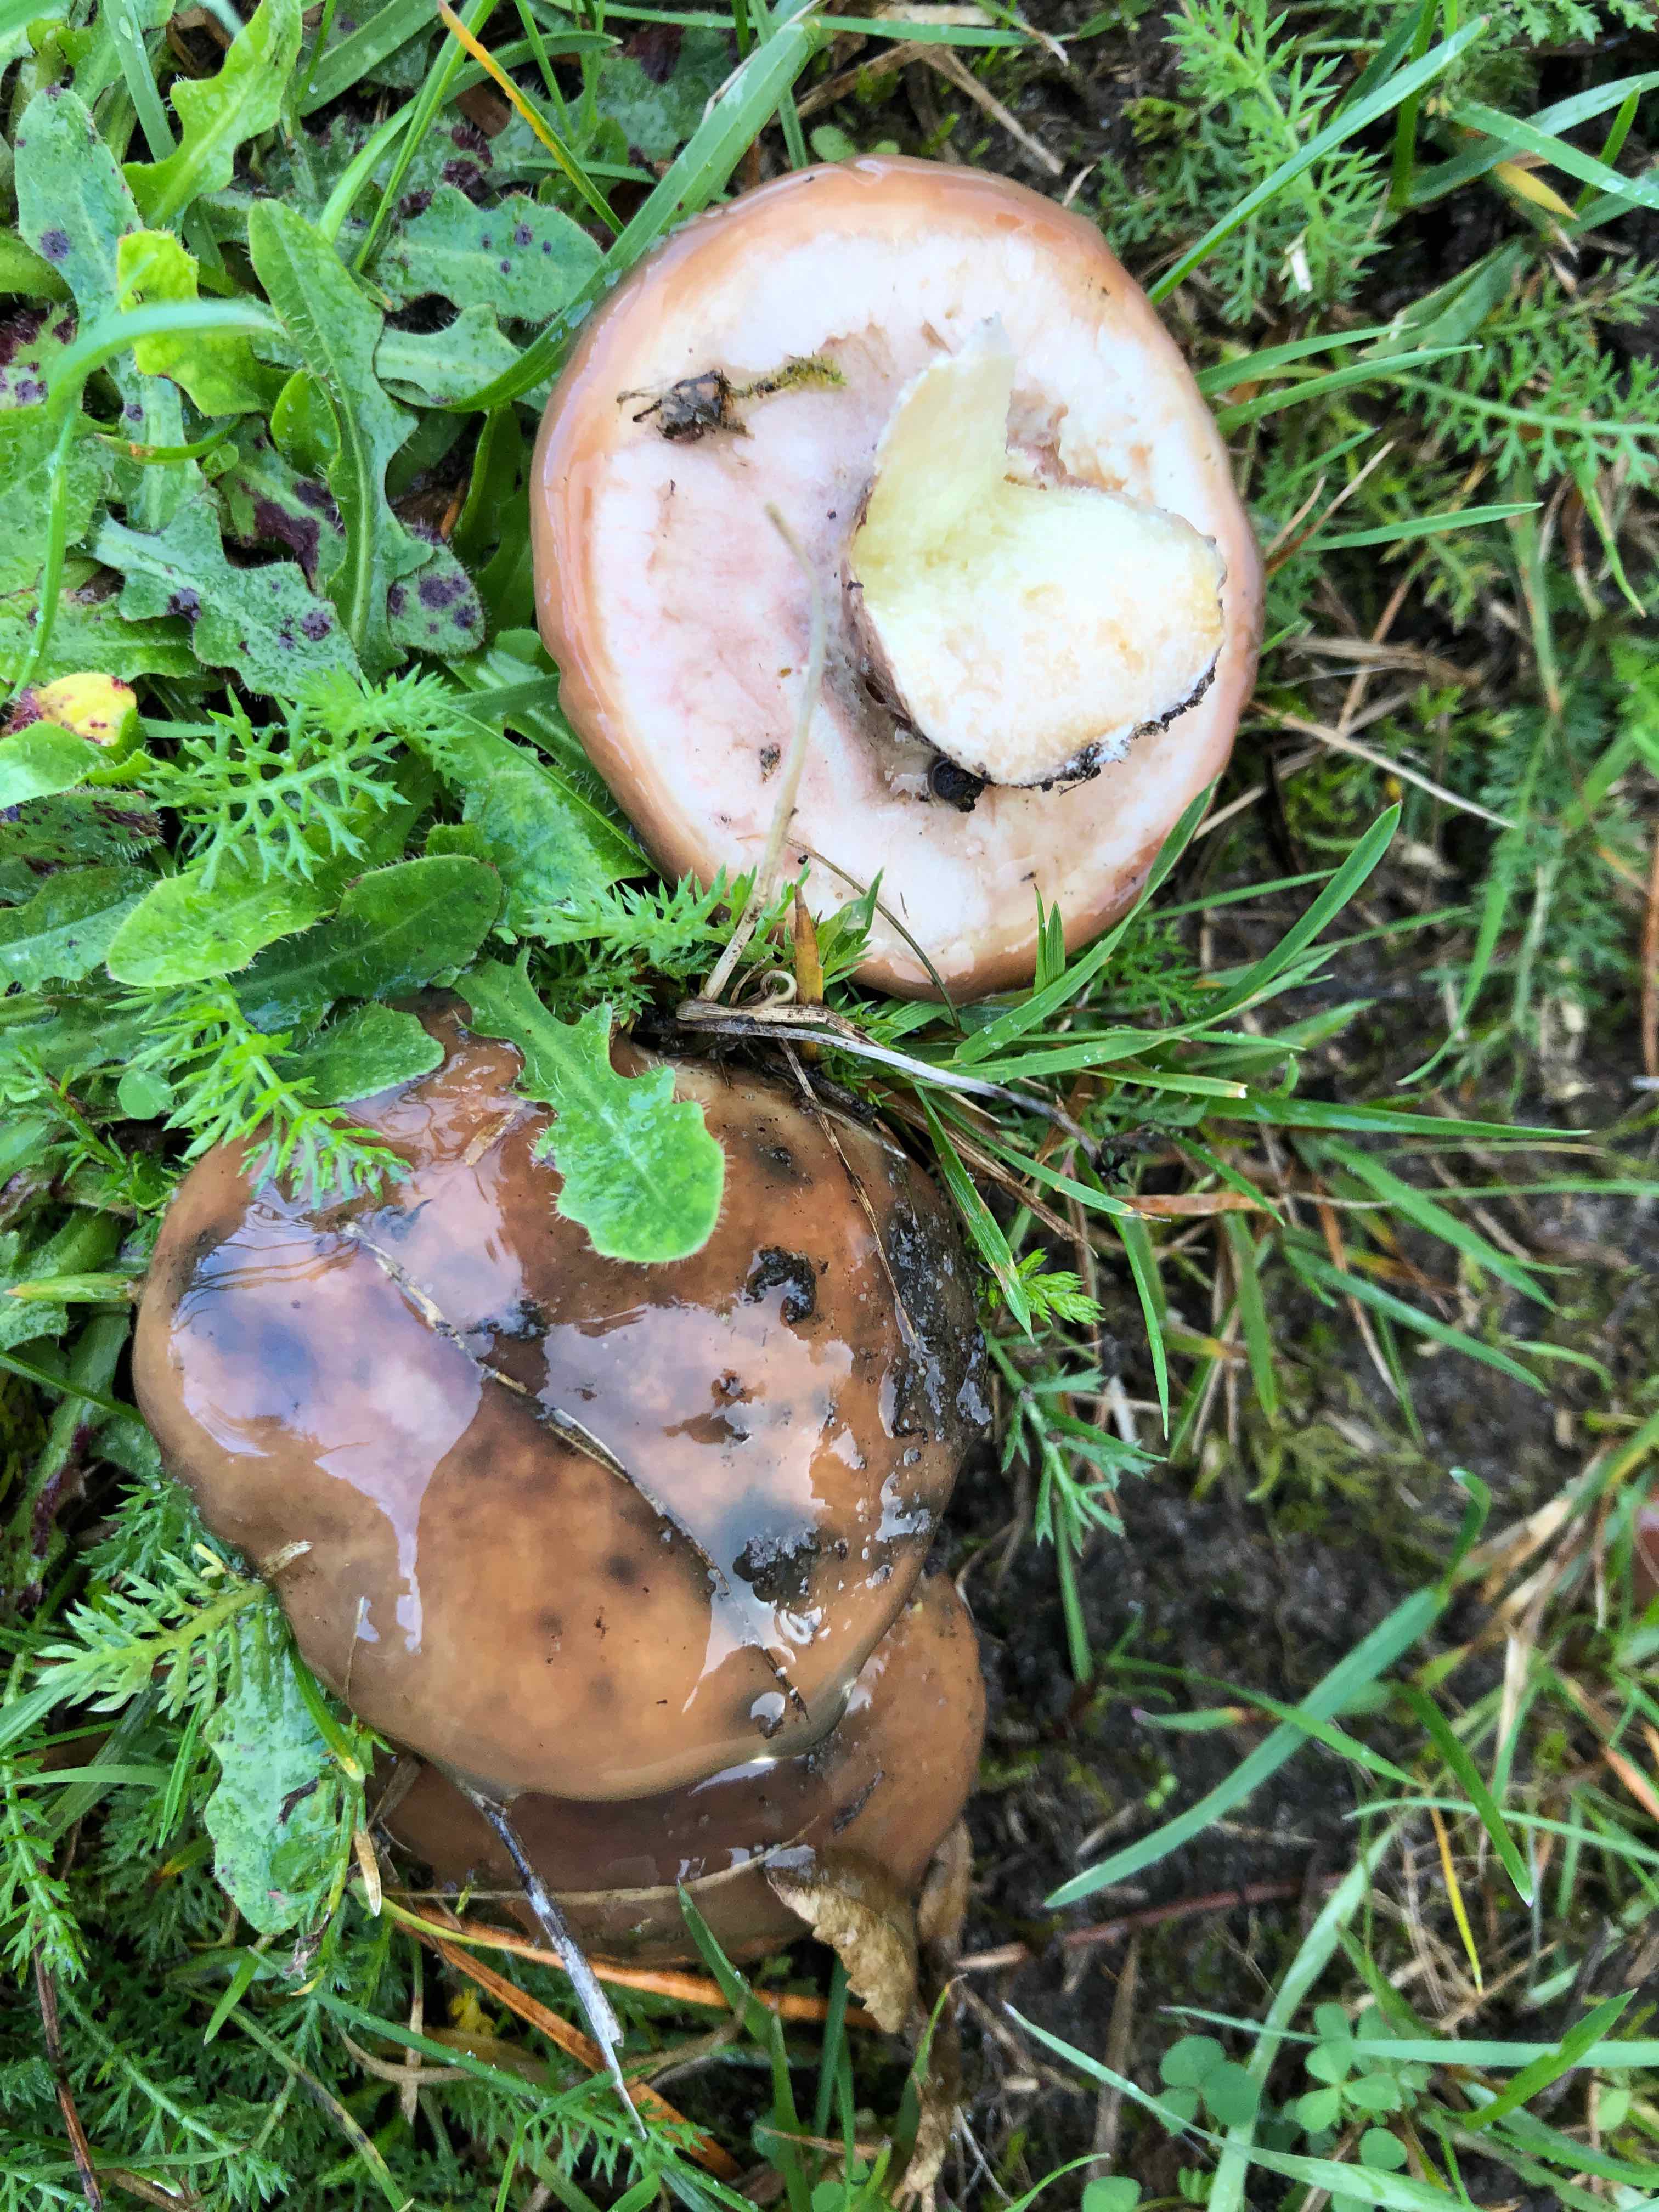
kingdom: Fungi
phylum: Basidiomycota
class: Agaricomycetes
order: Boletales
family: Suillaceae
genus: Suillus
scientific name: Suillus luteus
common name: brungul slimrørhat
